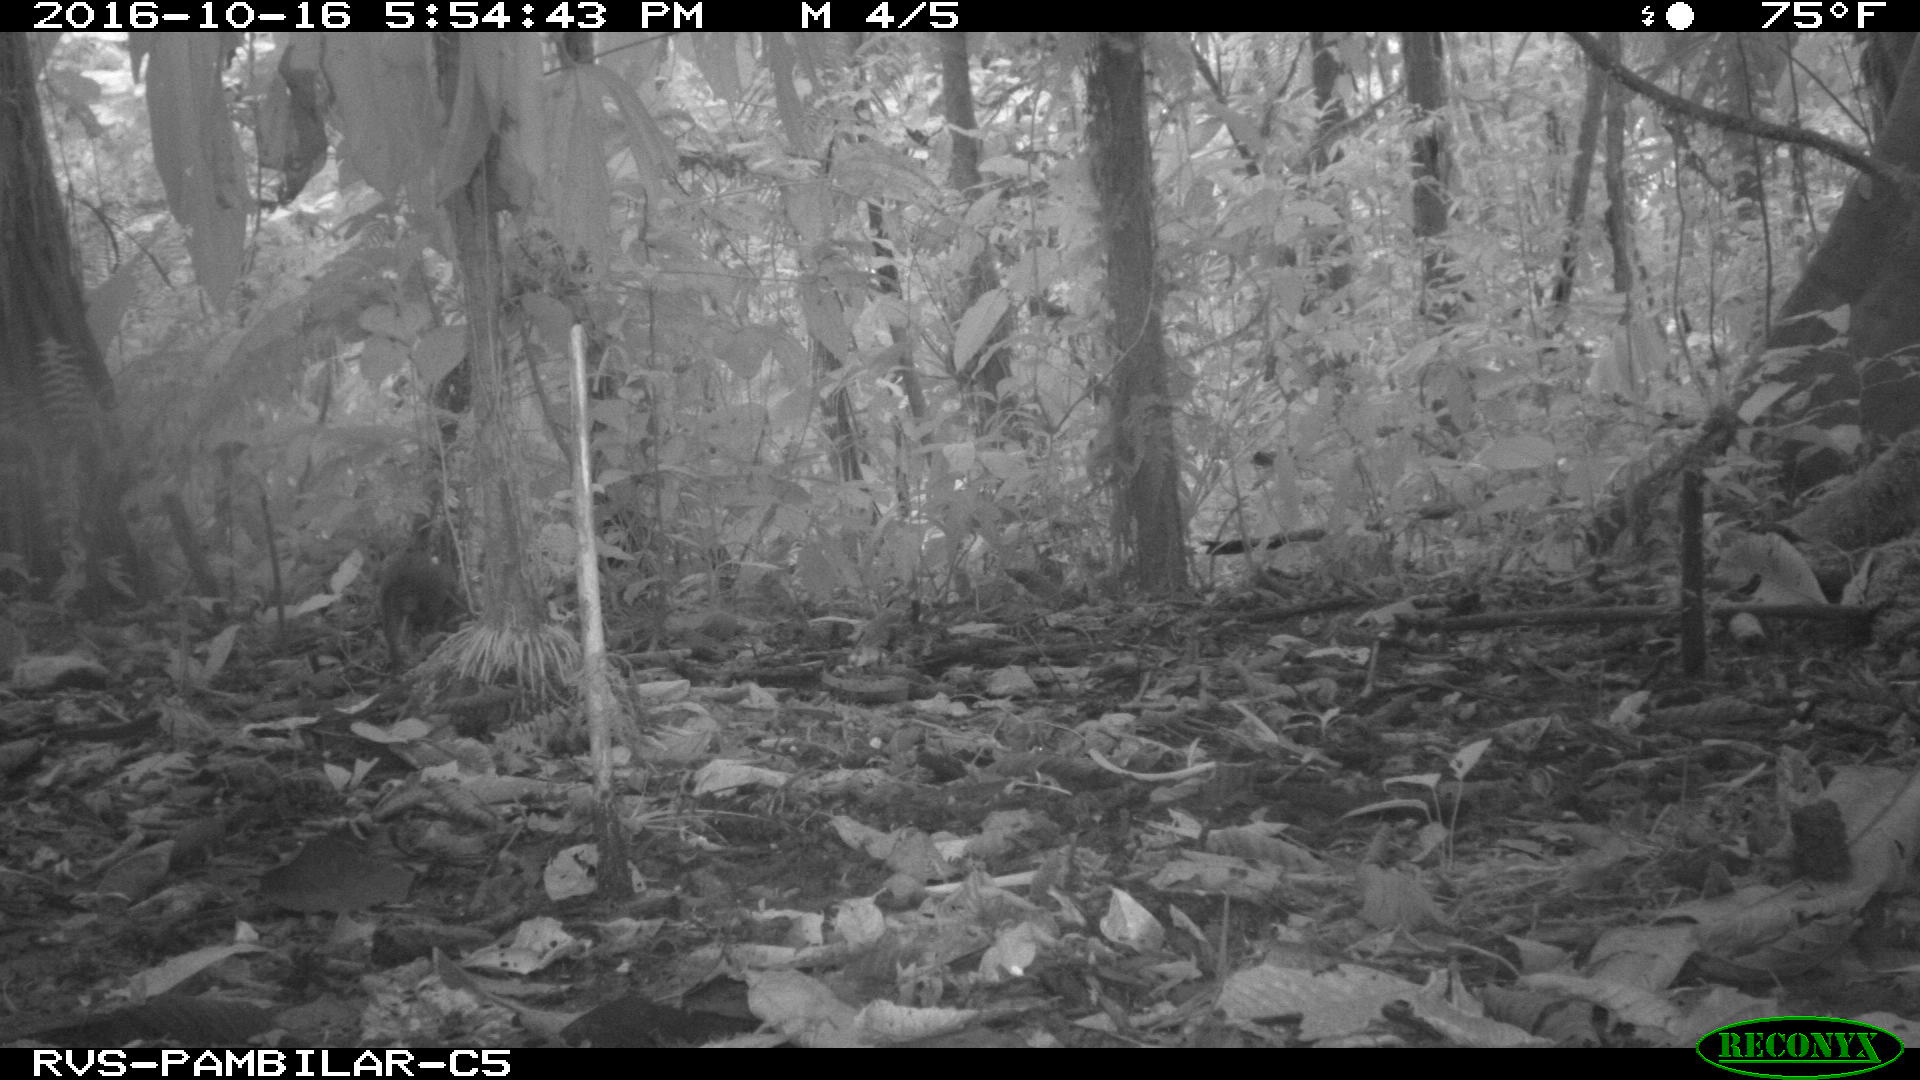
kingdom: Animalia
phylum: Chordata
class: Mammalia
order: Rodentia
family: Dasyproctidae
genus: Dasyprocta
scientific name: Dasyprocta punctata
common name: Central american agouti
